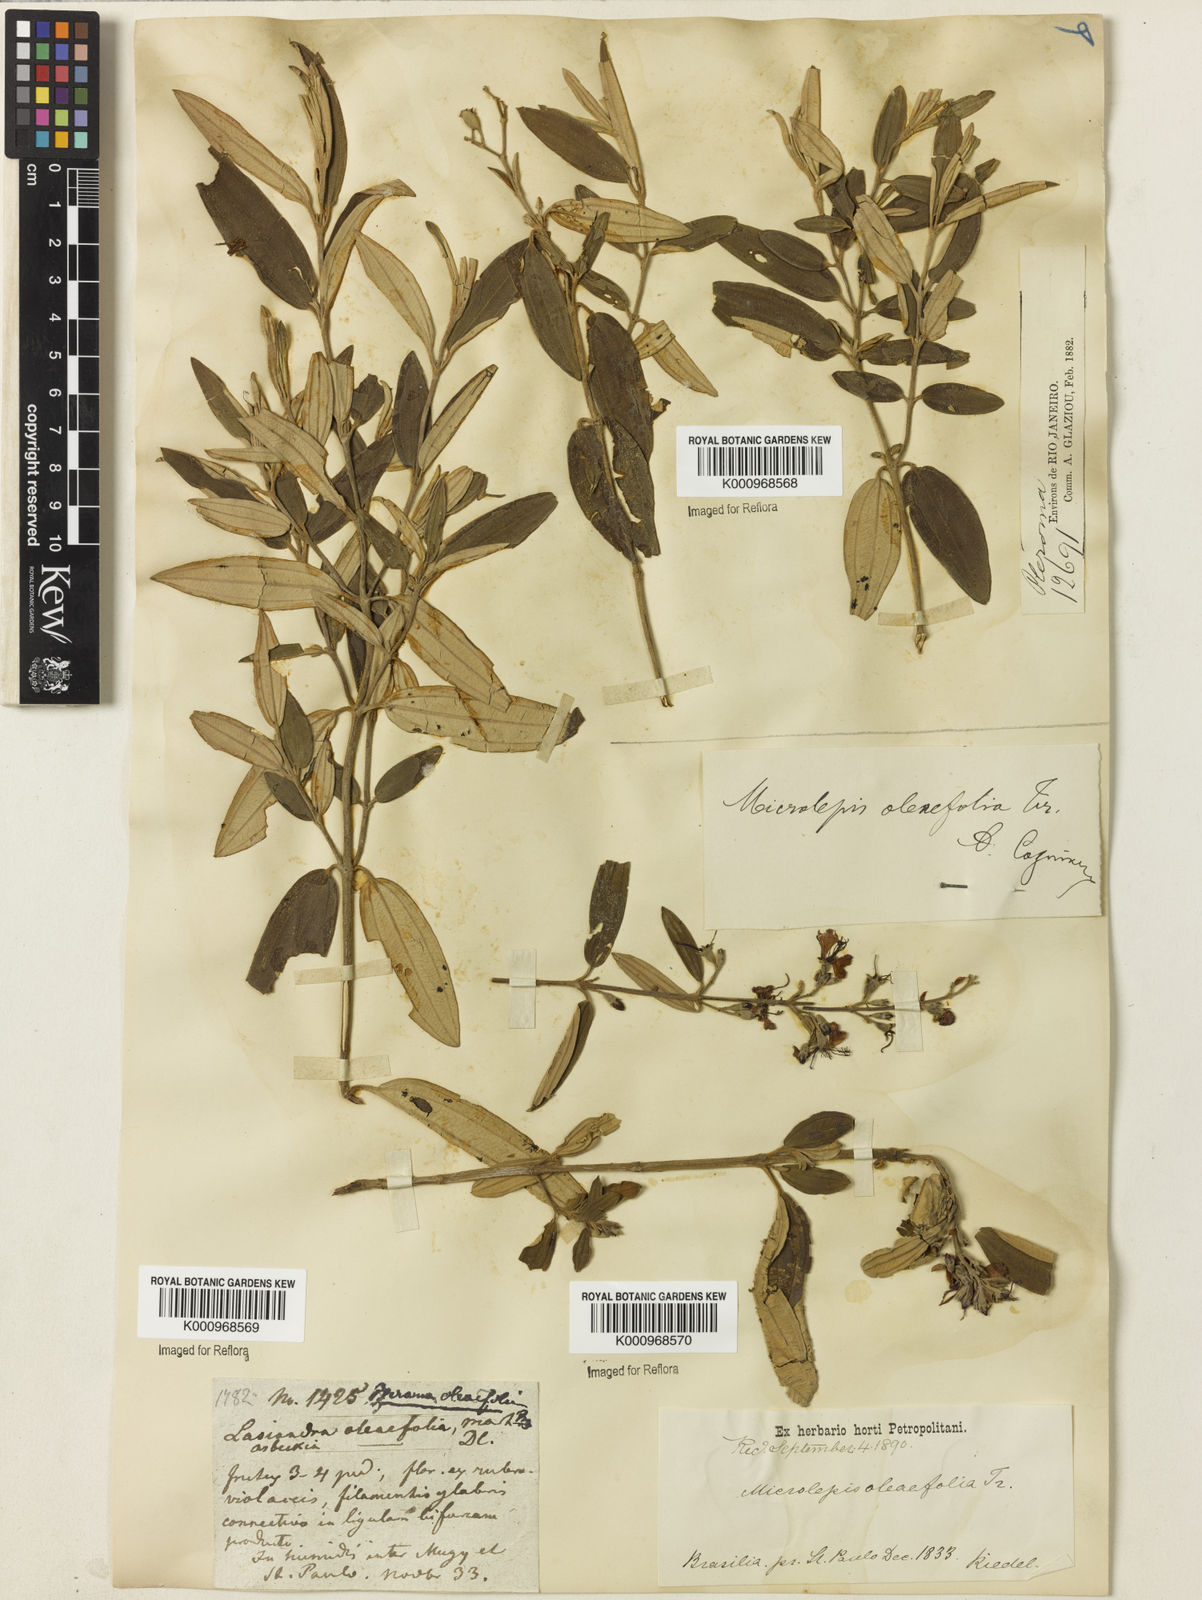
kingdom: Plantae
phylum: Tracheophyta
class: Magnoliopsida
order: Myrtales
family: Melastomataceae
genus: Pleroma
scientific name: Pleroma oleifolia
